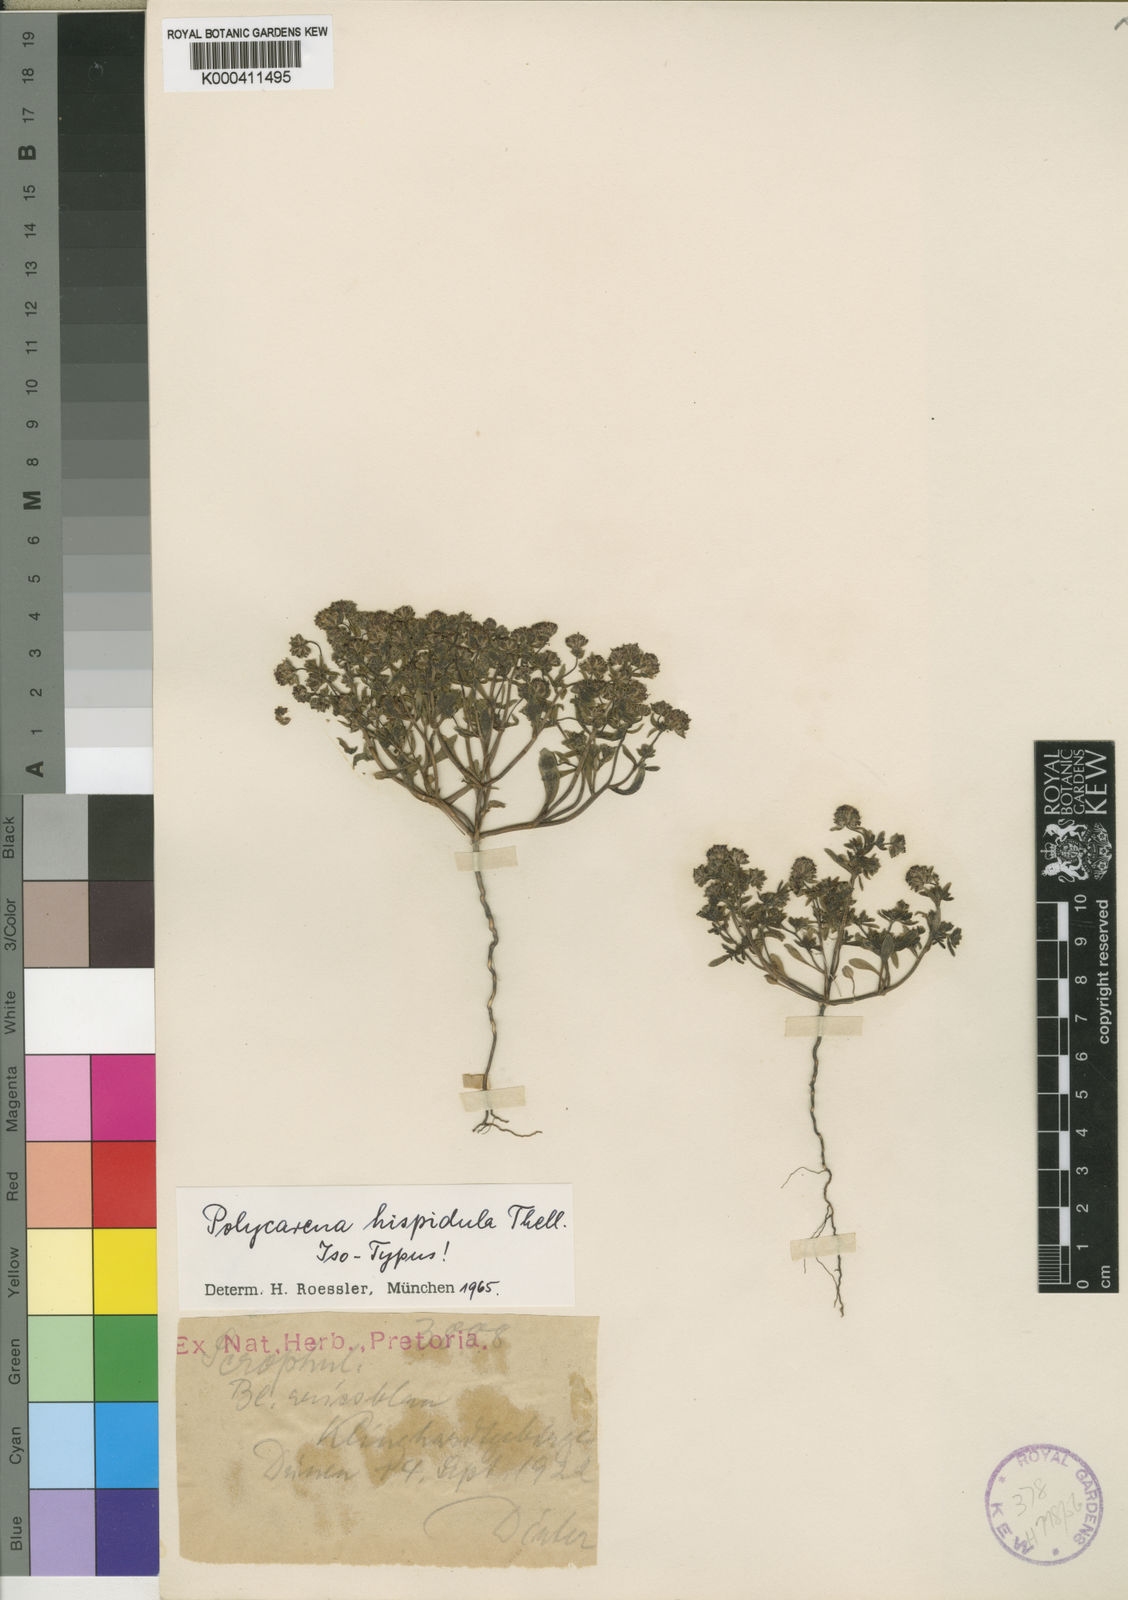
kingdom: Plantae
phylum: Tracheophyta
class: Magnoliopsida
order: Lamiales
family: Scrophulariaceae
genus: Phyllopodium
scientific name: Phyllopodium hispidulum
